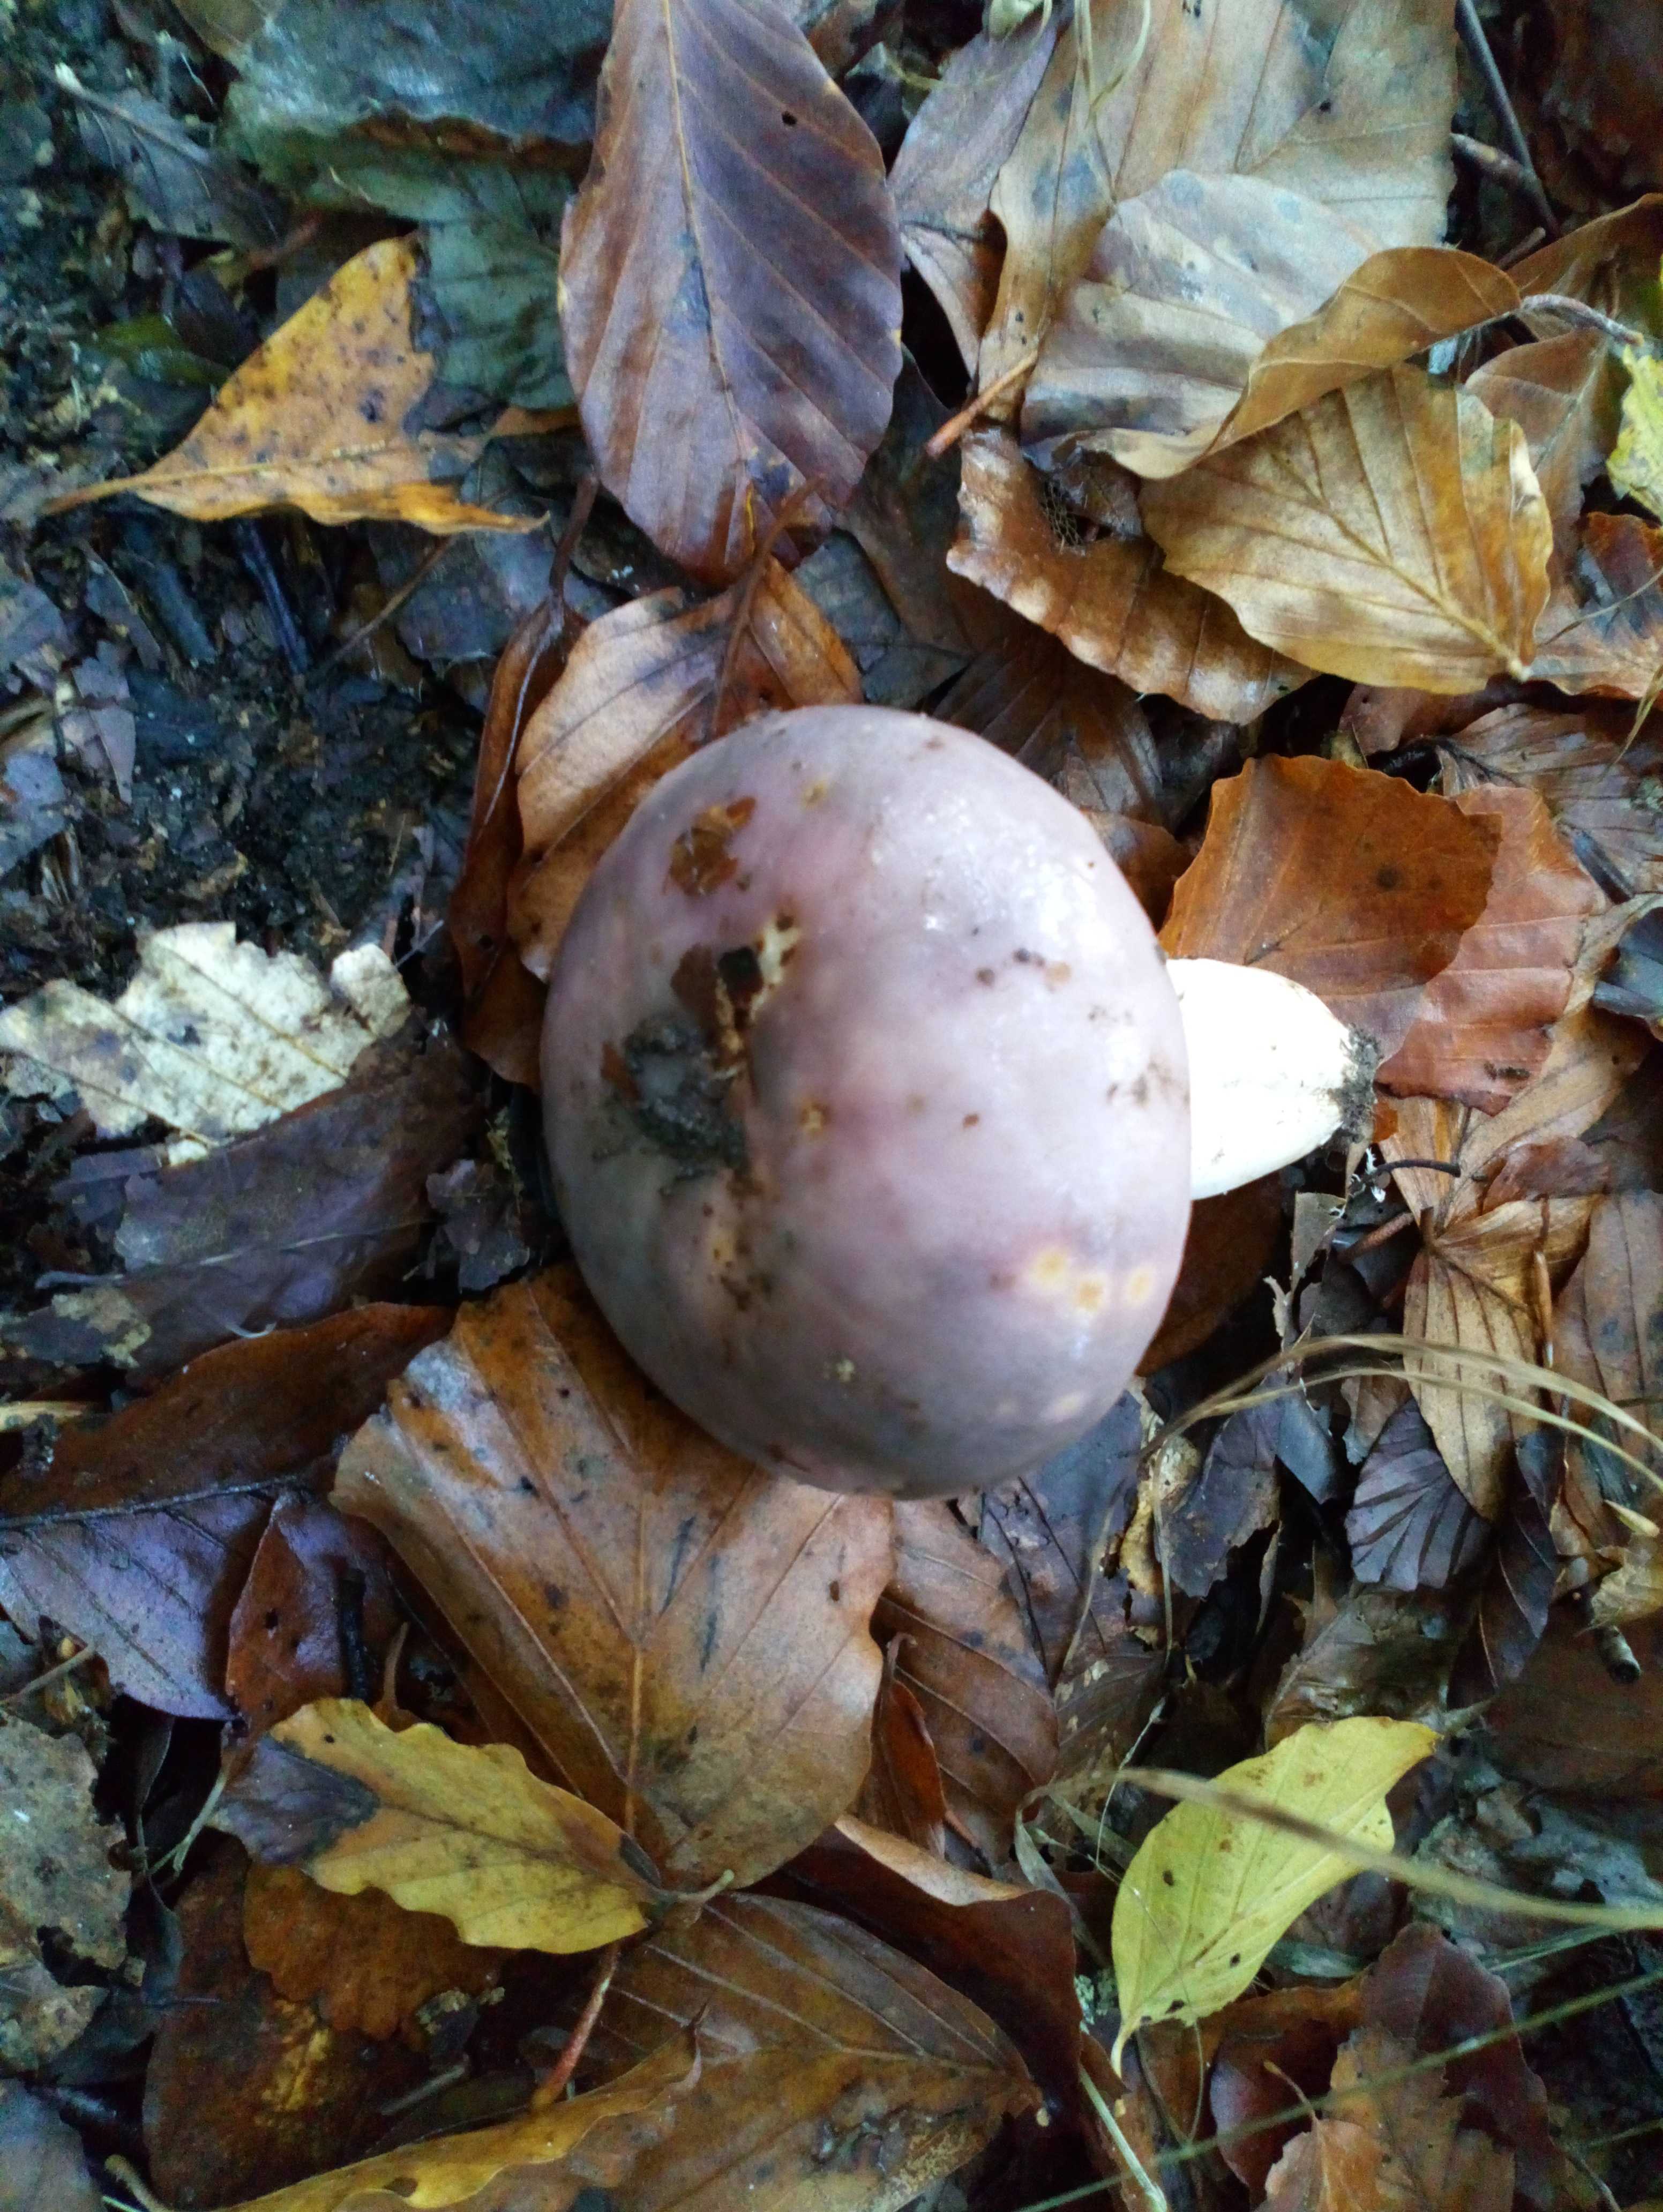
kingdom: Fungi
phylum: Basidiomycota
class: Agaricomycetes
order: Russulales
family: Russulaceae
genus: Russula
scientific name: Russula cyanoxantha
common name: broget skørhat
